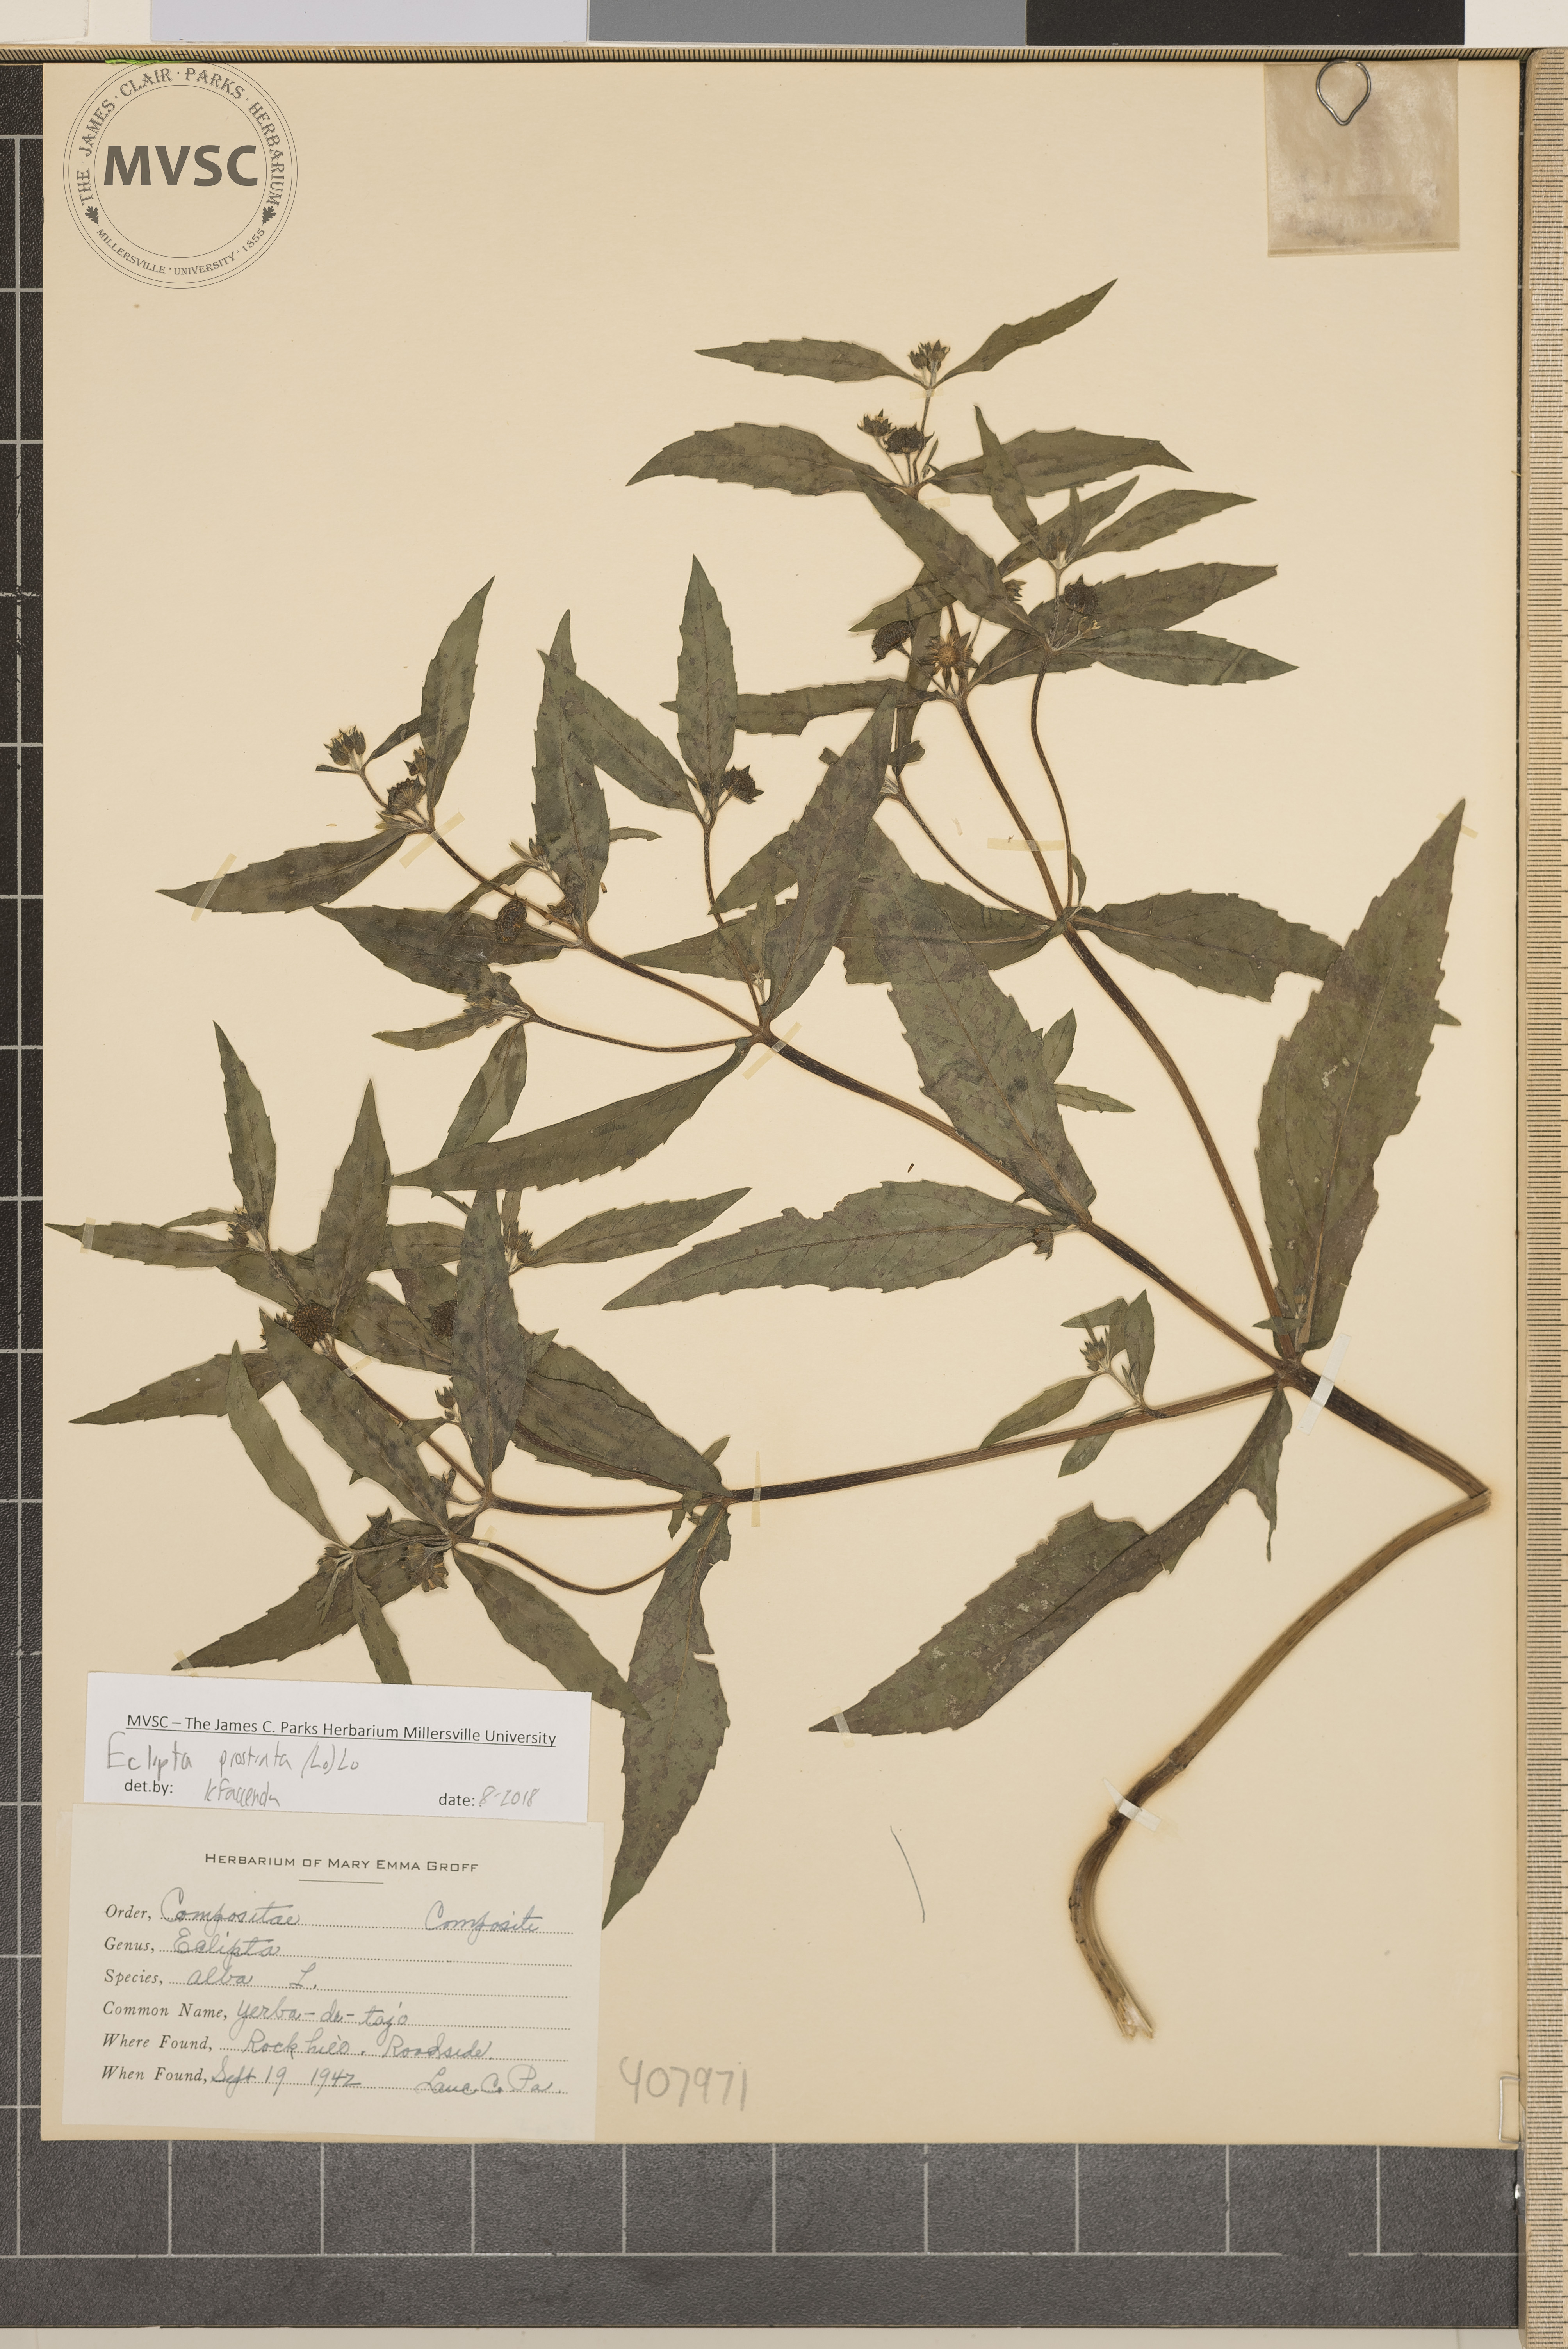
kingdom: Plantae
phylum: Tracheophyta
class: Magnoliopsida
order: Asterales
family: Asteraceae
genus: Eclipta
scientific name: Eclipta prostrata
